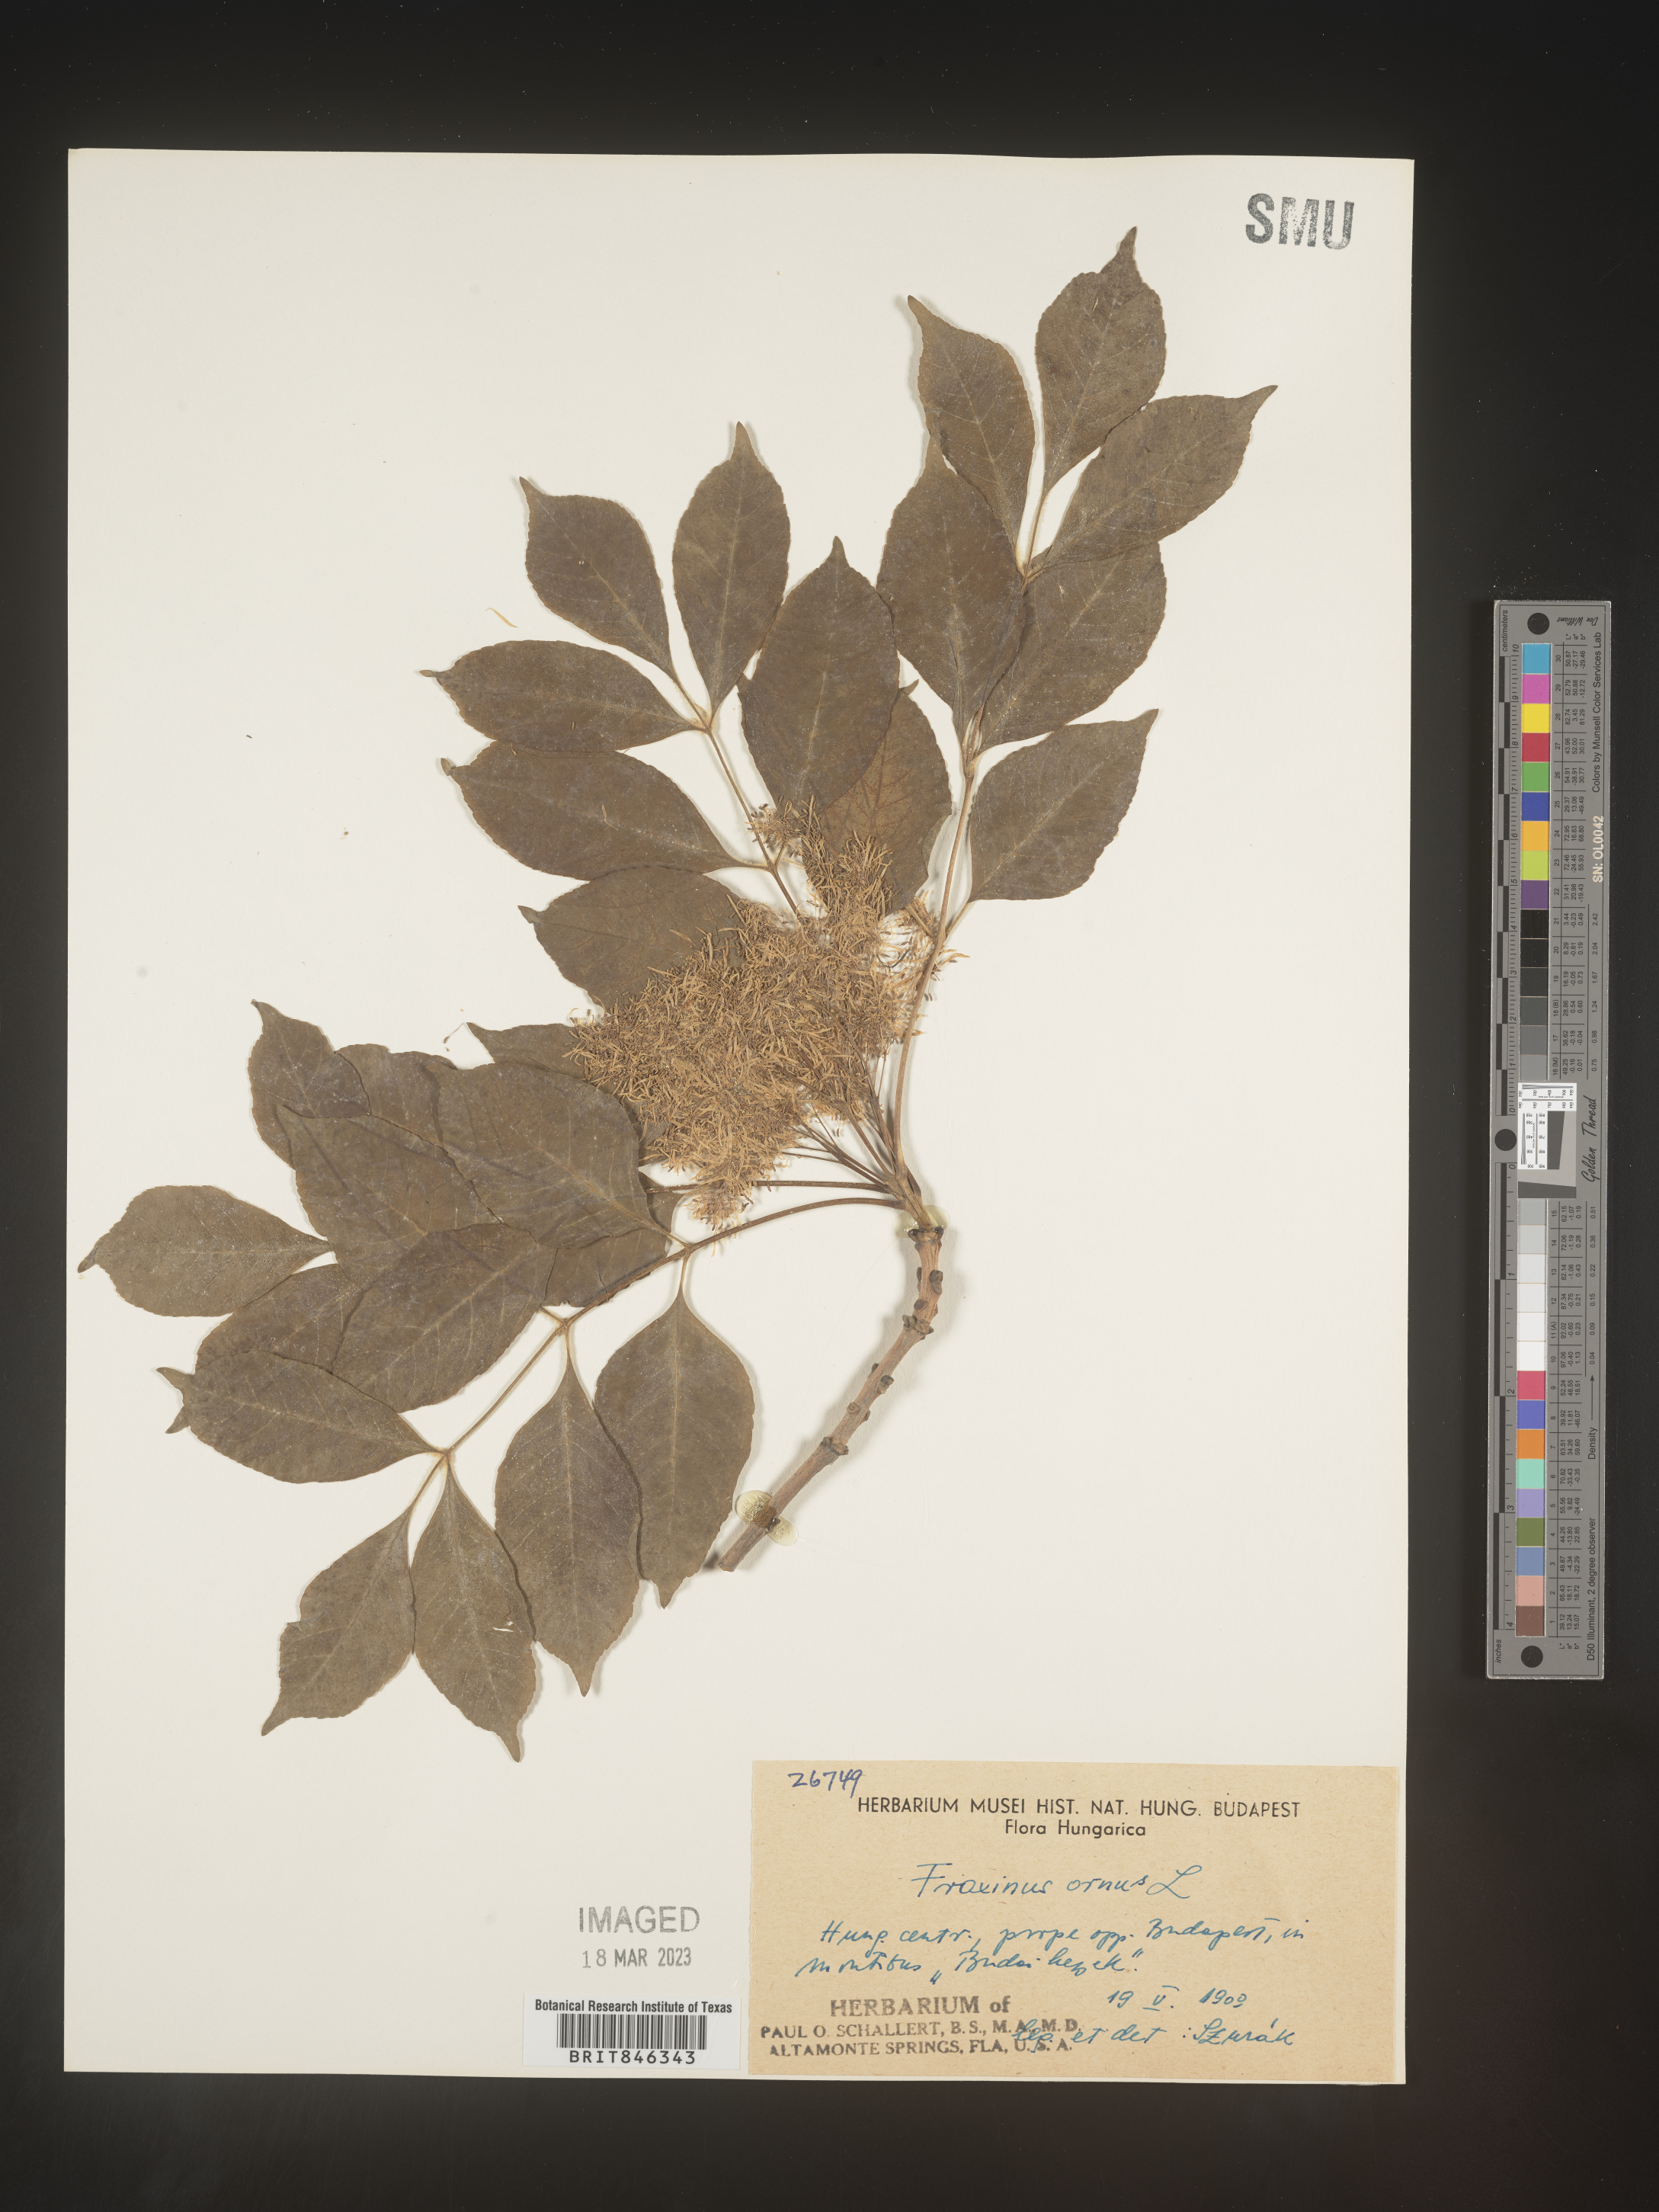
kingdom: Plantae
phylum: Tracheophyta
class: Magnoliopsida
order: Lamiales
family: Oleaceae
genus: Fraxinus
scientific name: Fraxinus
